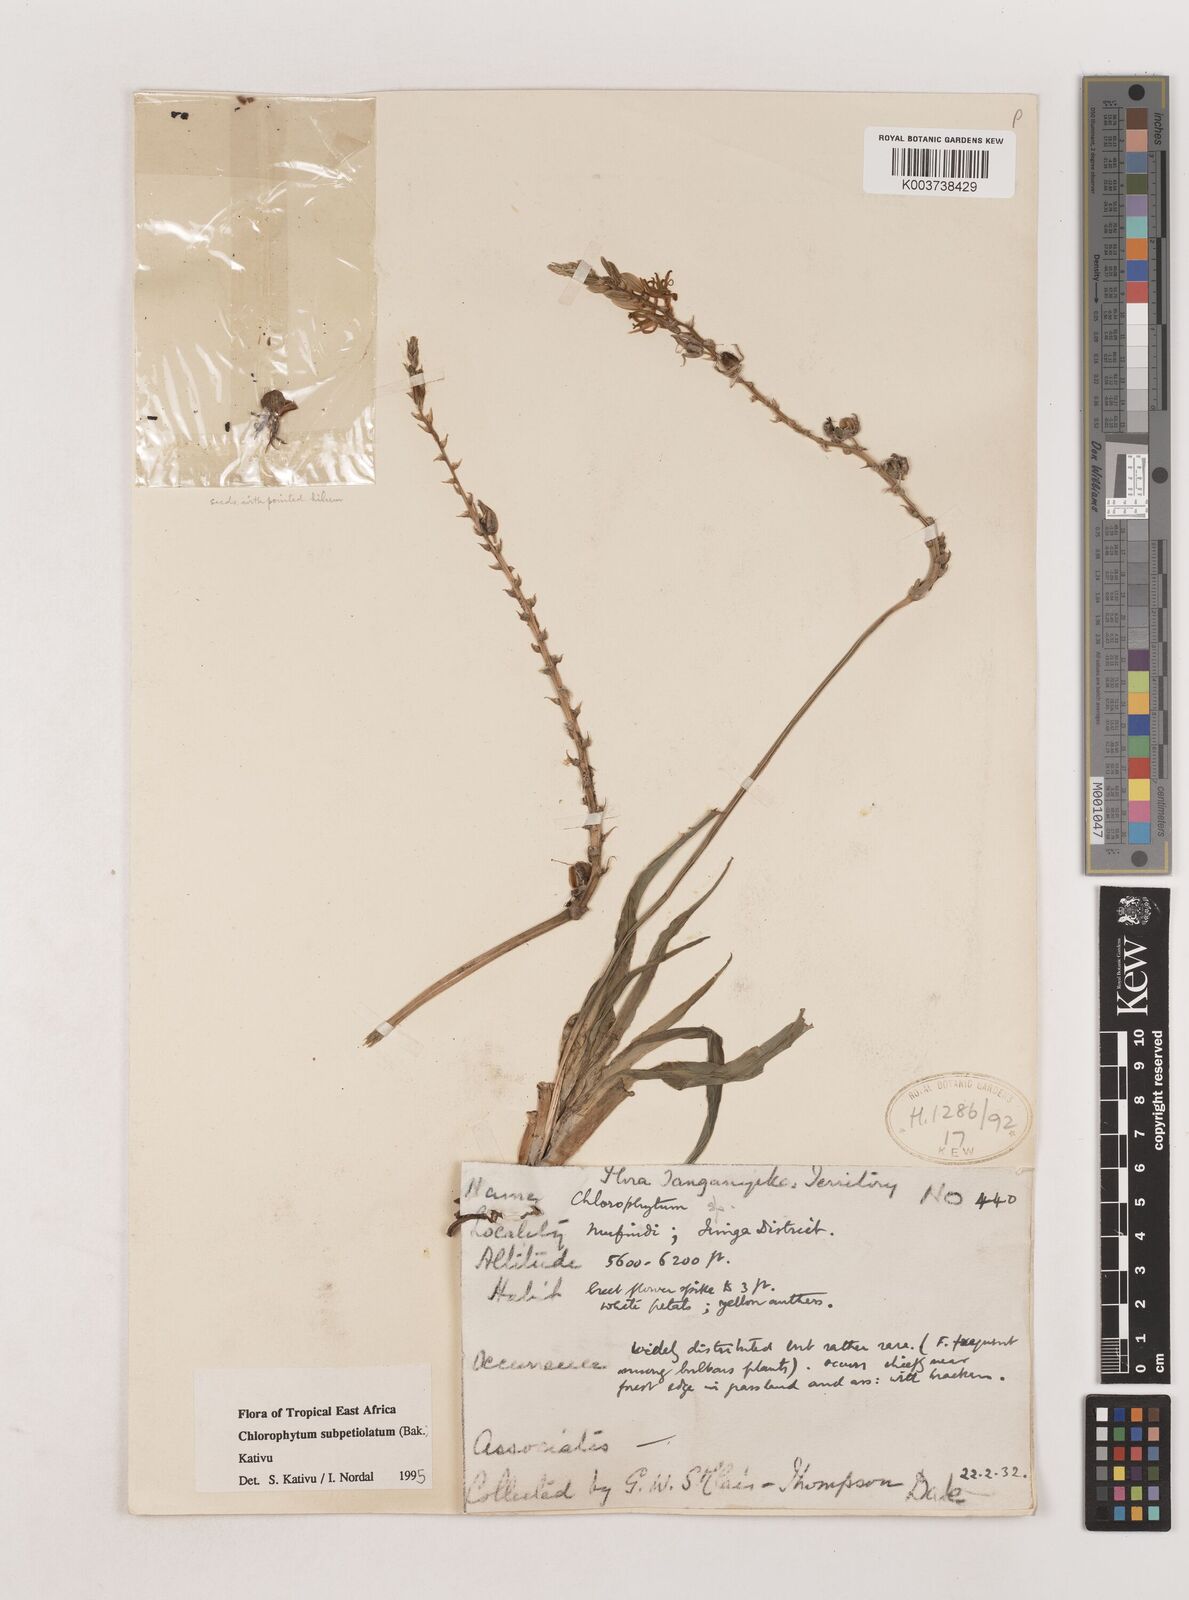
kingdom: Plantae
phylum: Tracheophyta
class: Liliopsida
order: Asparagales
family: Asparagaceae
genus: Chlorophytum
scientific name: Chlorophytum subpetiolatum
